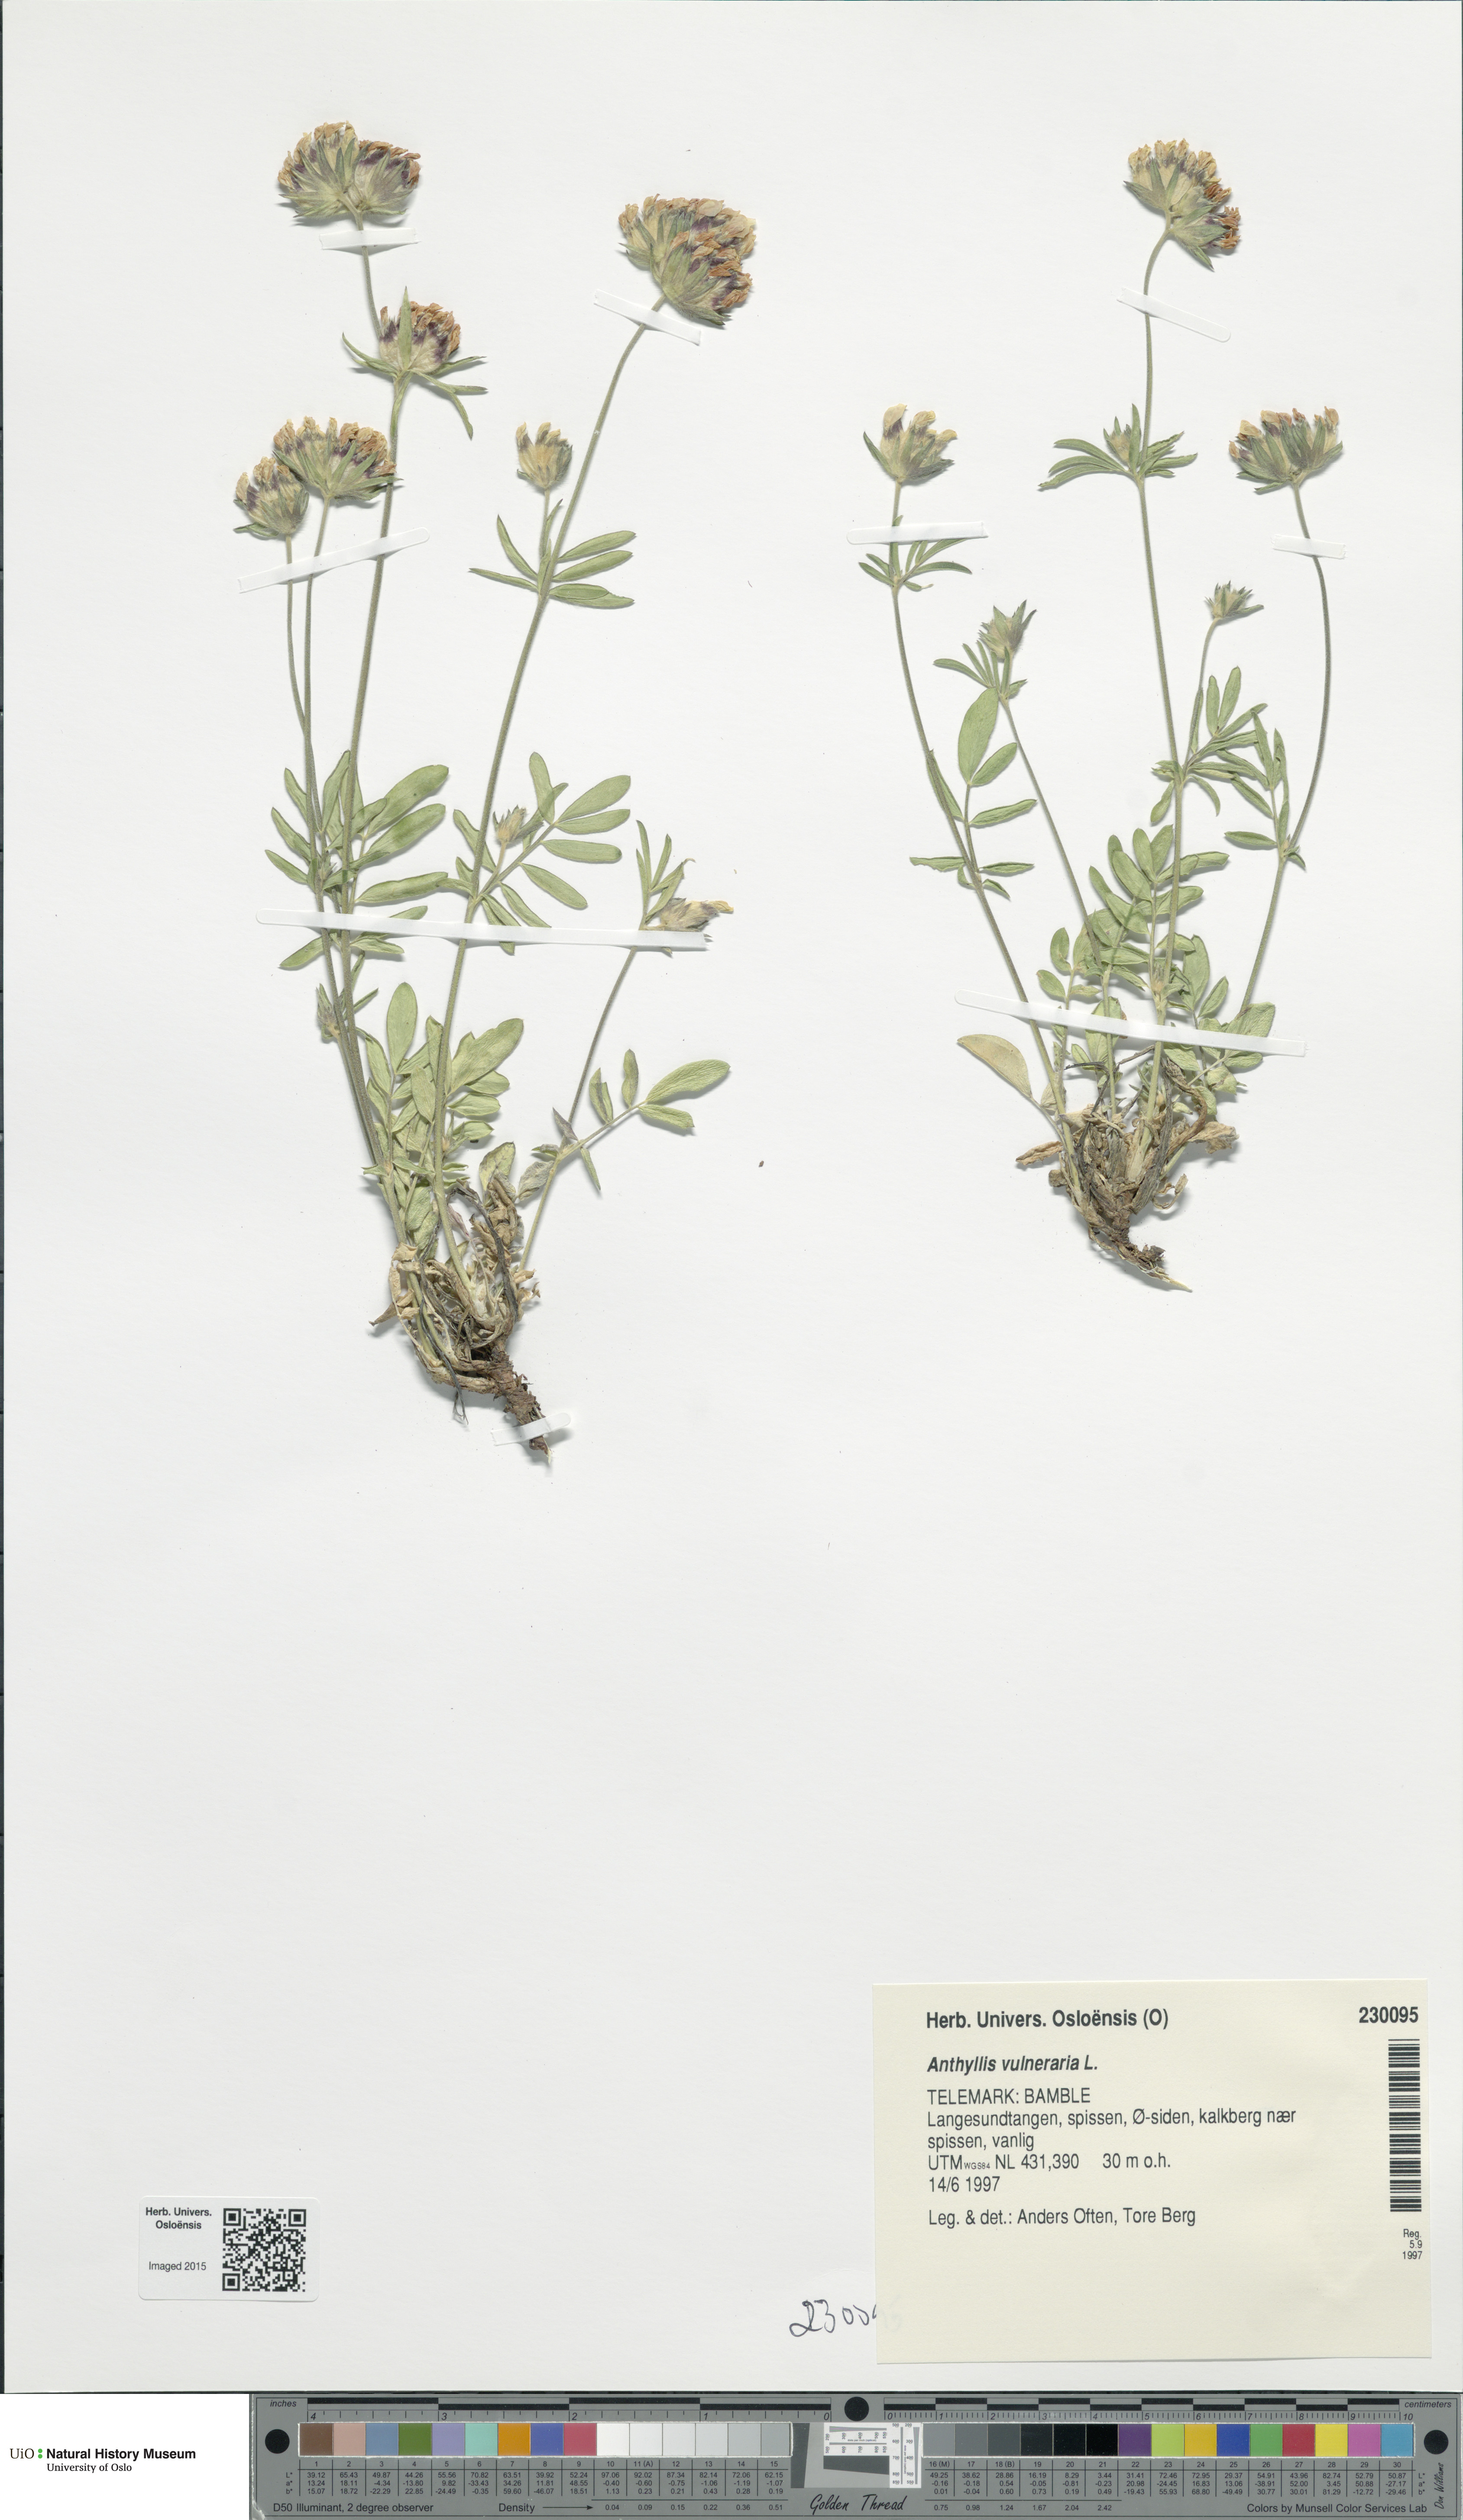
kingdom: Plantae
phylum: Tracheophyta
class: Magnoliopsida
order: Fabales
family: Fabaceae
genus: Anthyllis
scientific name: Anthyllis vulneraria
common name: Kidney vetch
